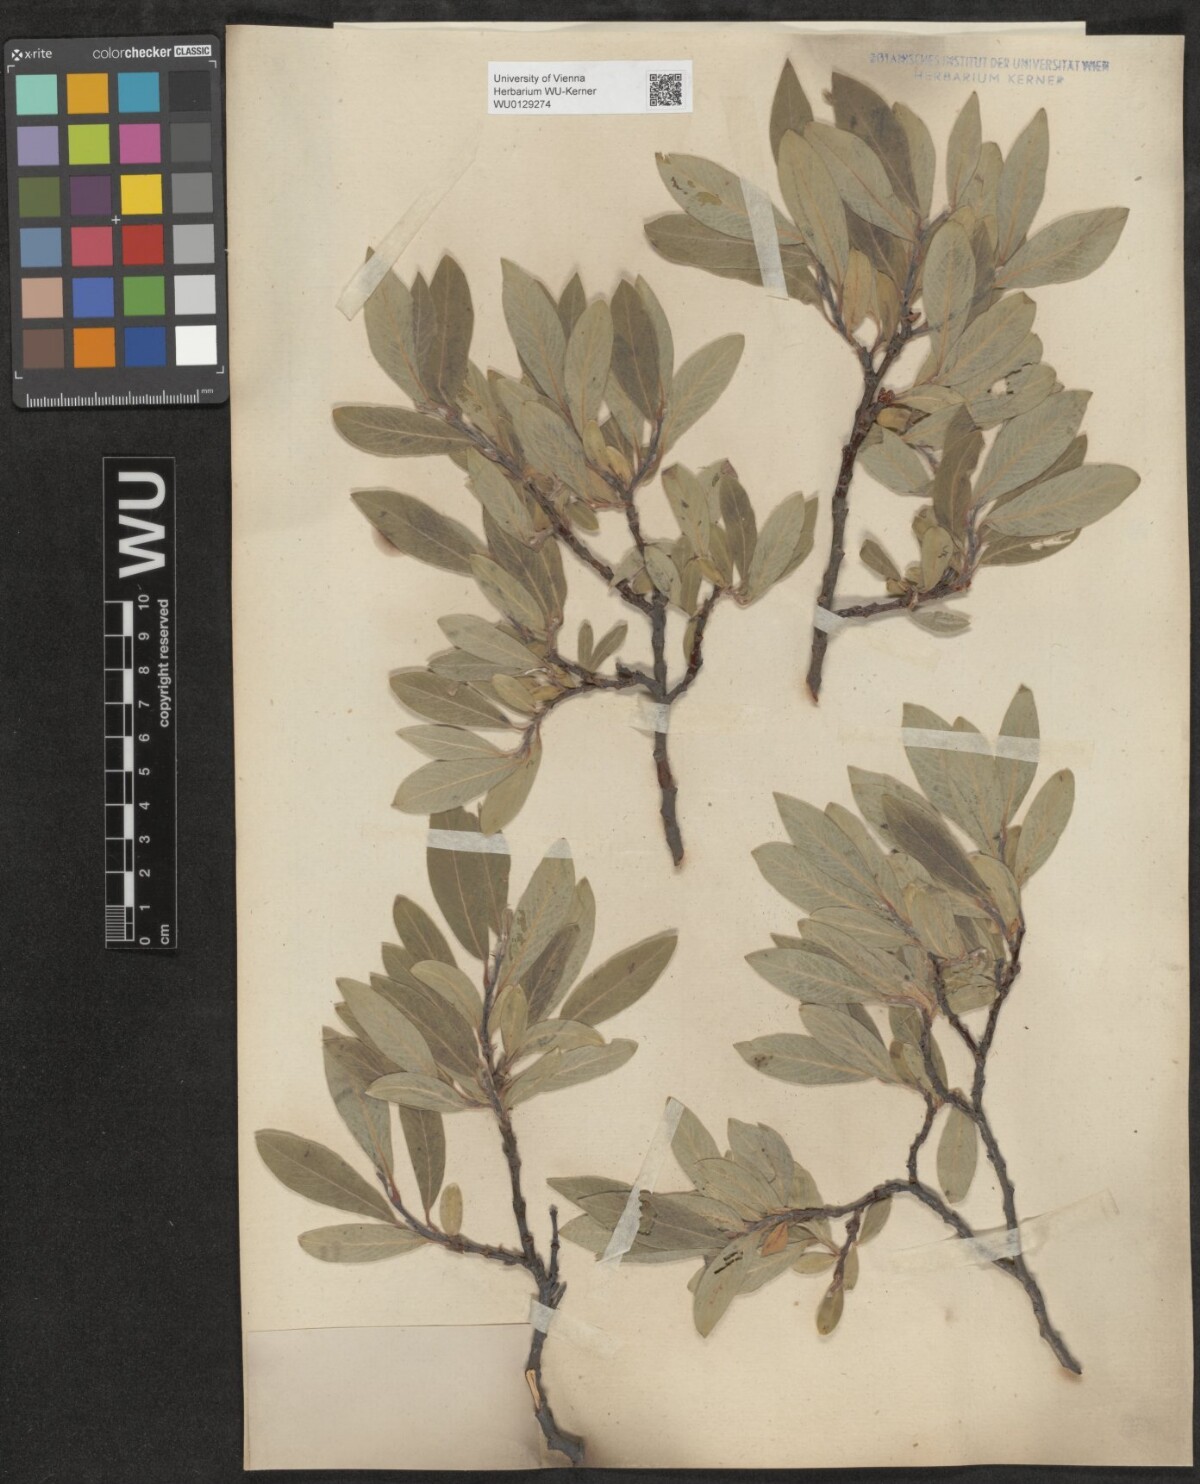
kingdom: Plantae
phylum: Tracheophyta
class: Magnoliopsida
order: Malpighiales
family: Salicaceae
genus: Salix
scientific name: Salix glauca
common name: Glaucous willow
